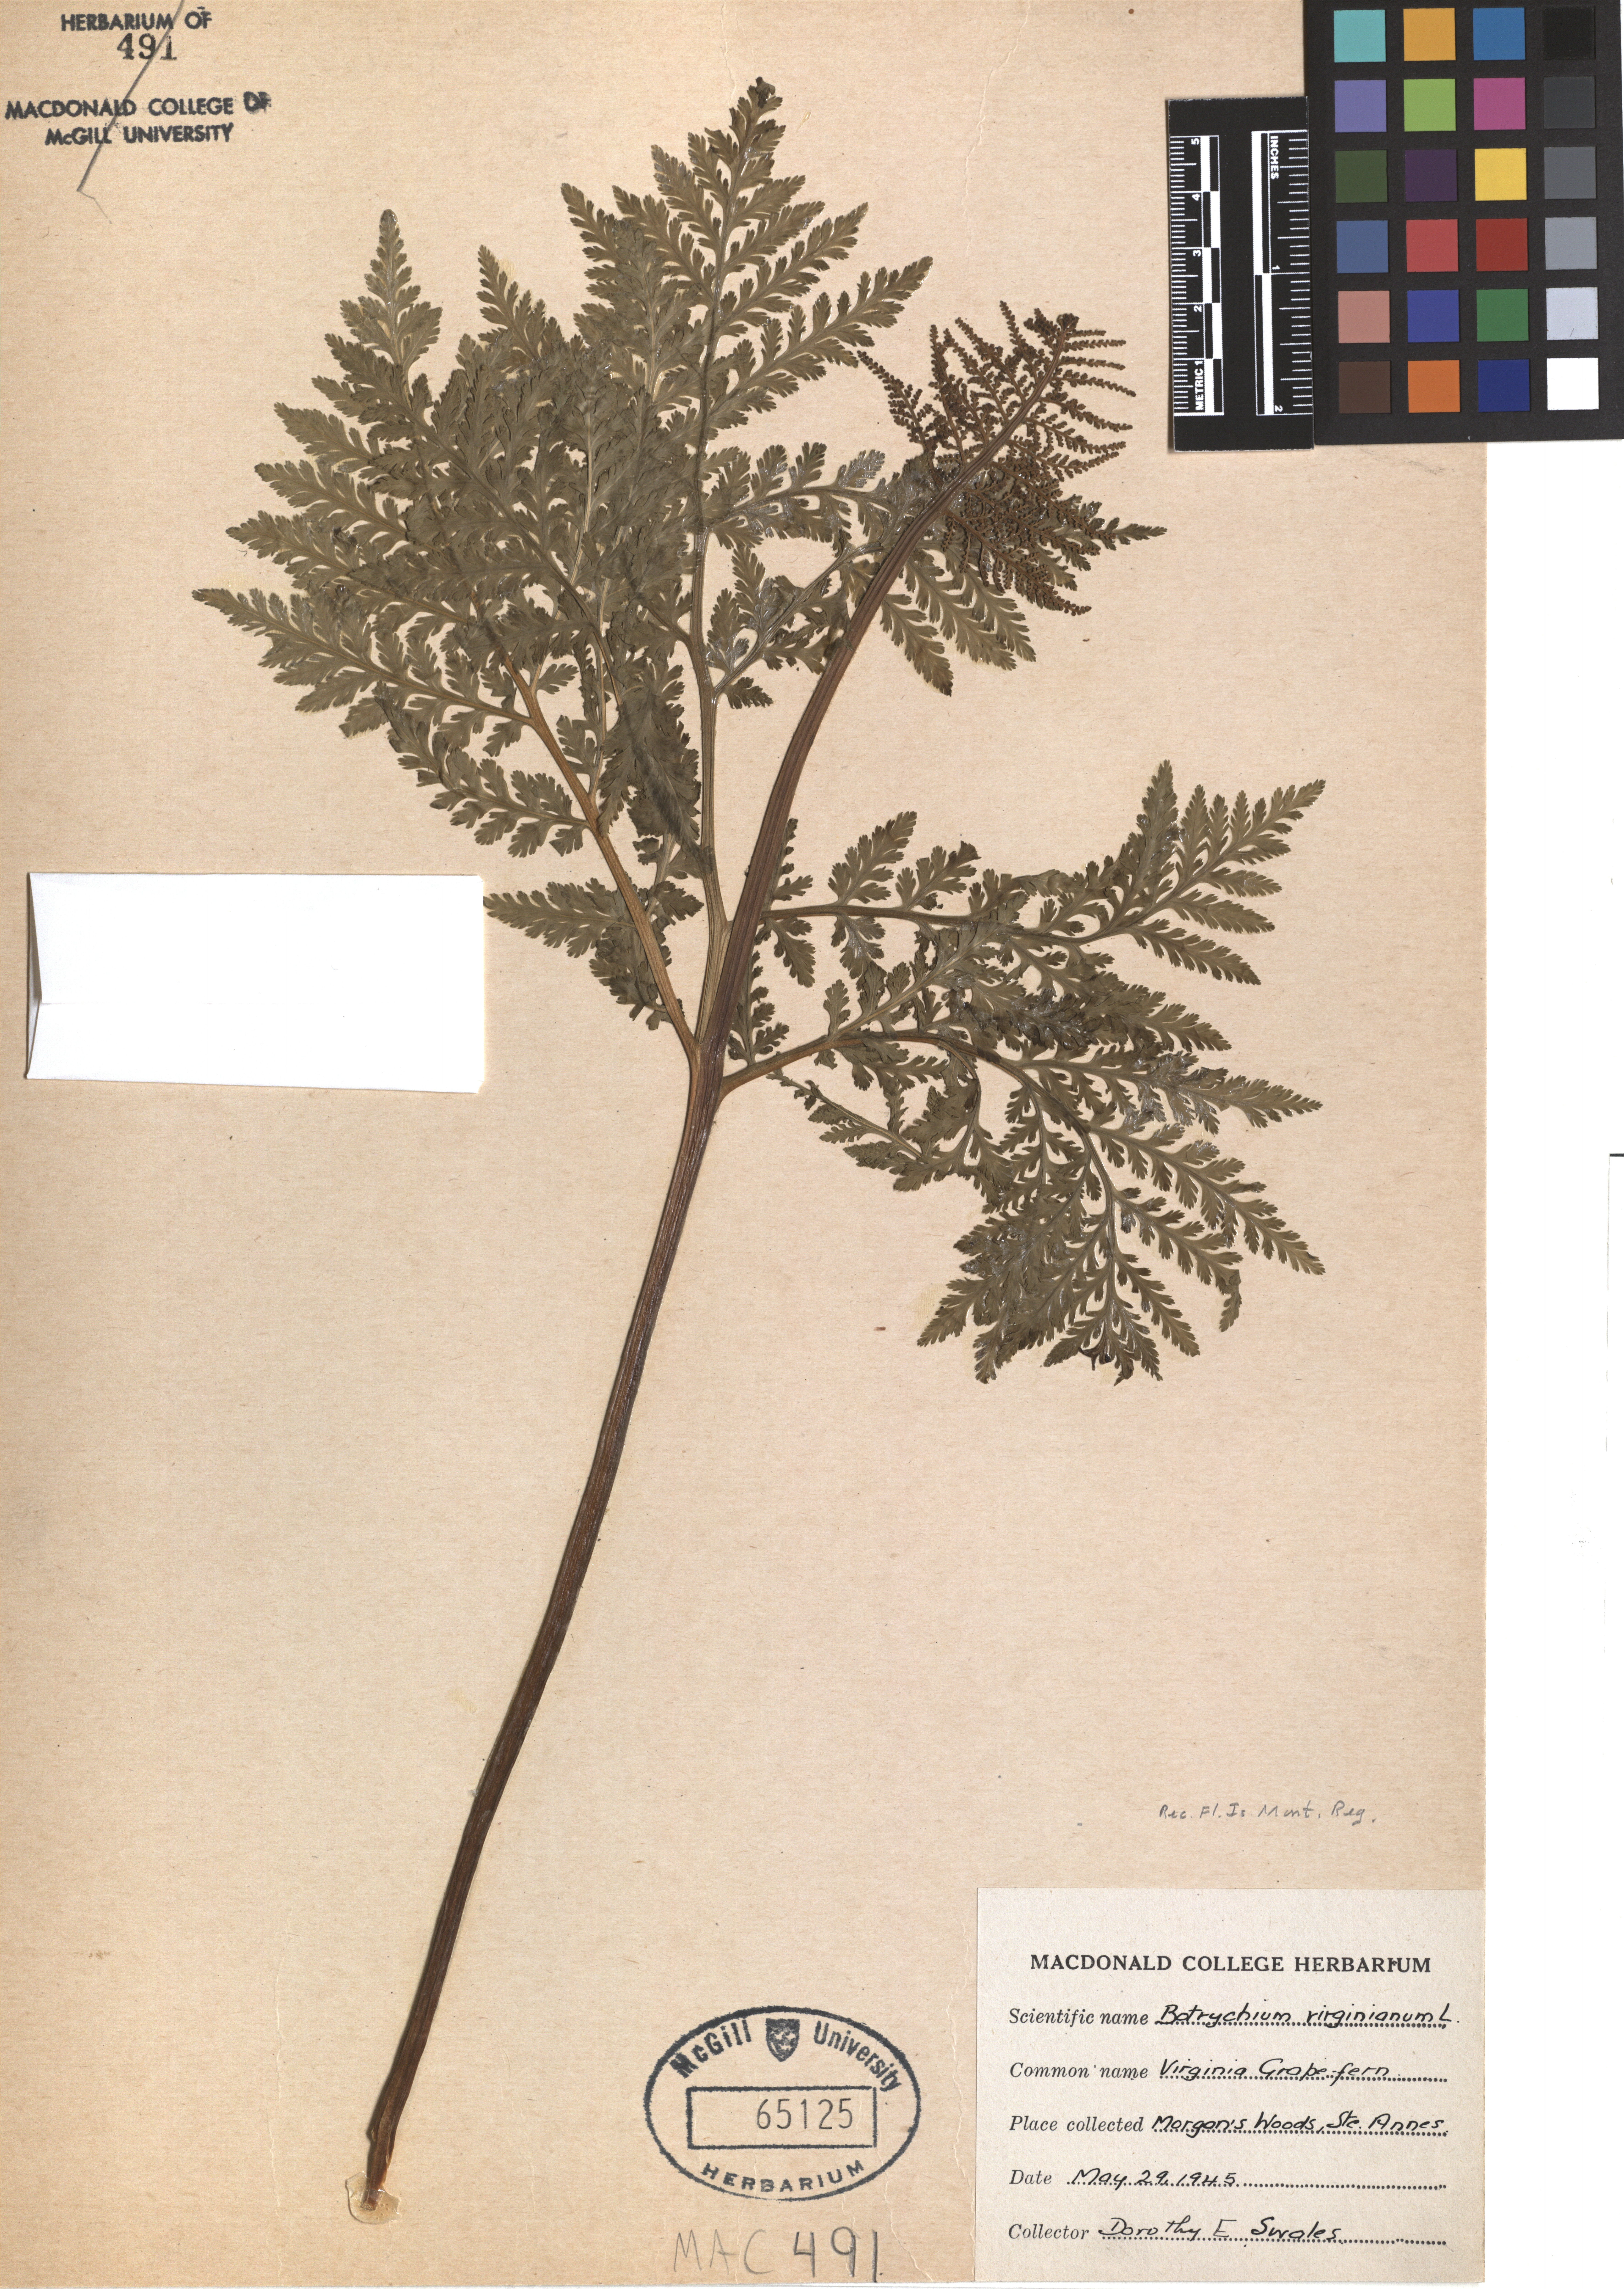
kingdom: Plantae
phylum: Tracheophyta
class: Polypodiopsida
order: Ophioglossales
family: Ophioglossaceae
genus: Botrypus
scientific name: Botrypus virginianus
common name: Common grapefern
